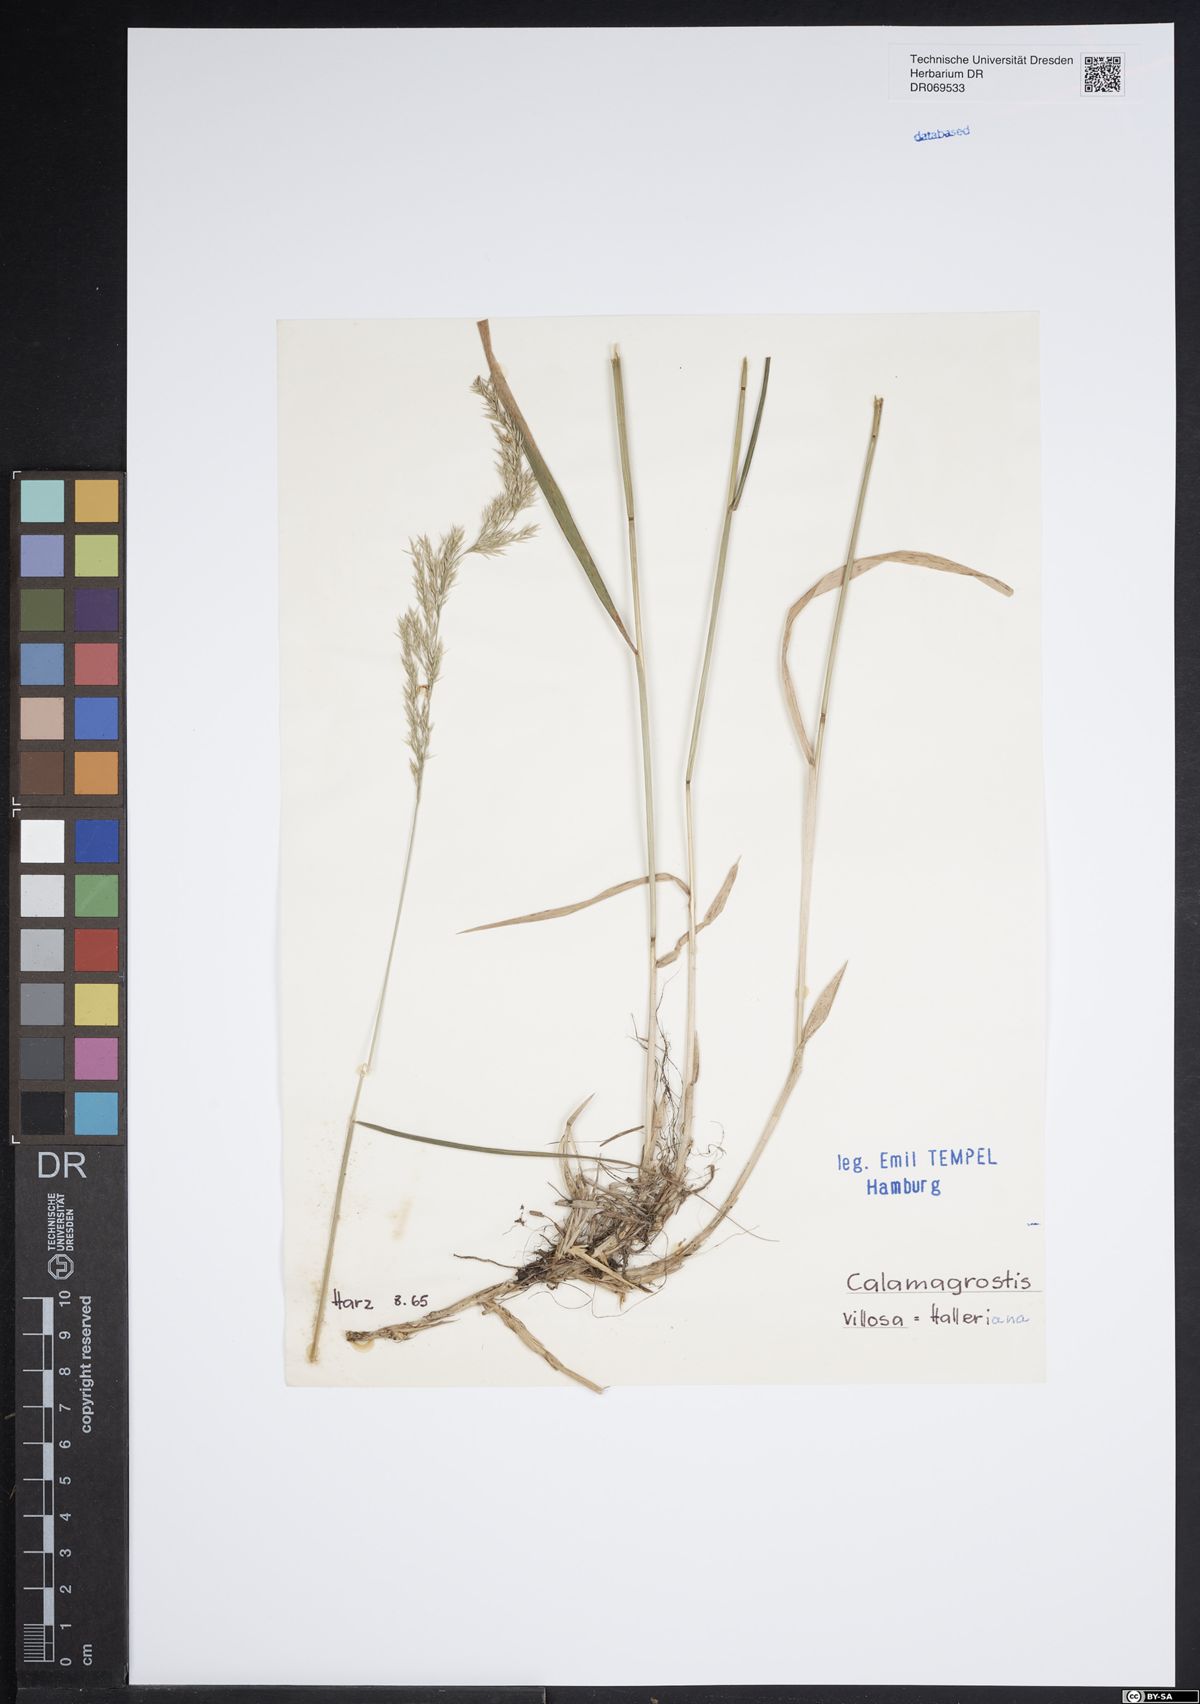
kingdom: Plantae
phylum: Tracheophyta
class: Liliopsida
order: Poales
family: Poaceae
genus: Calamagrostis
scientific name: Calamagrostis villosa
